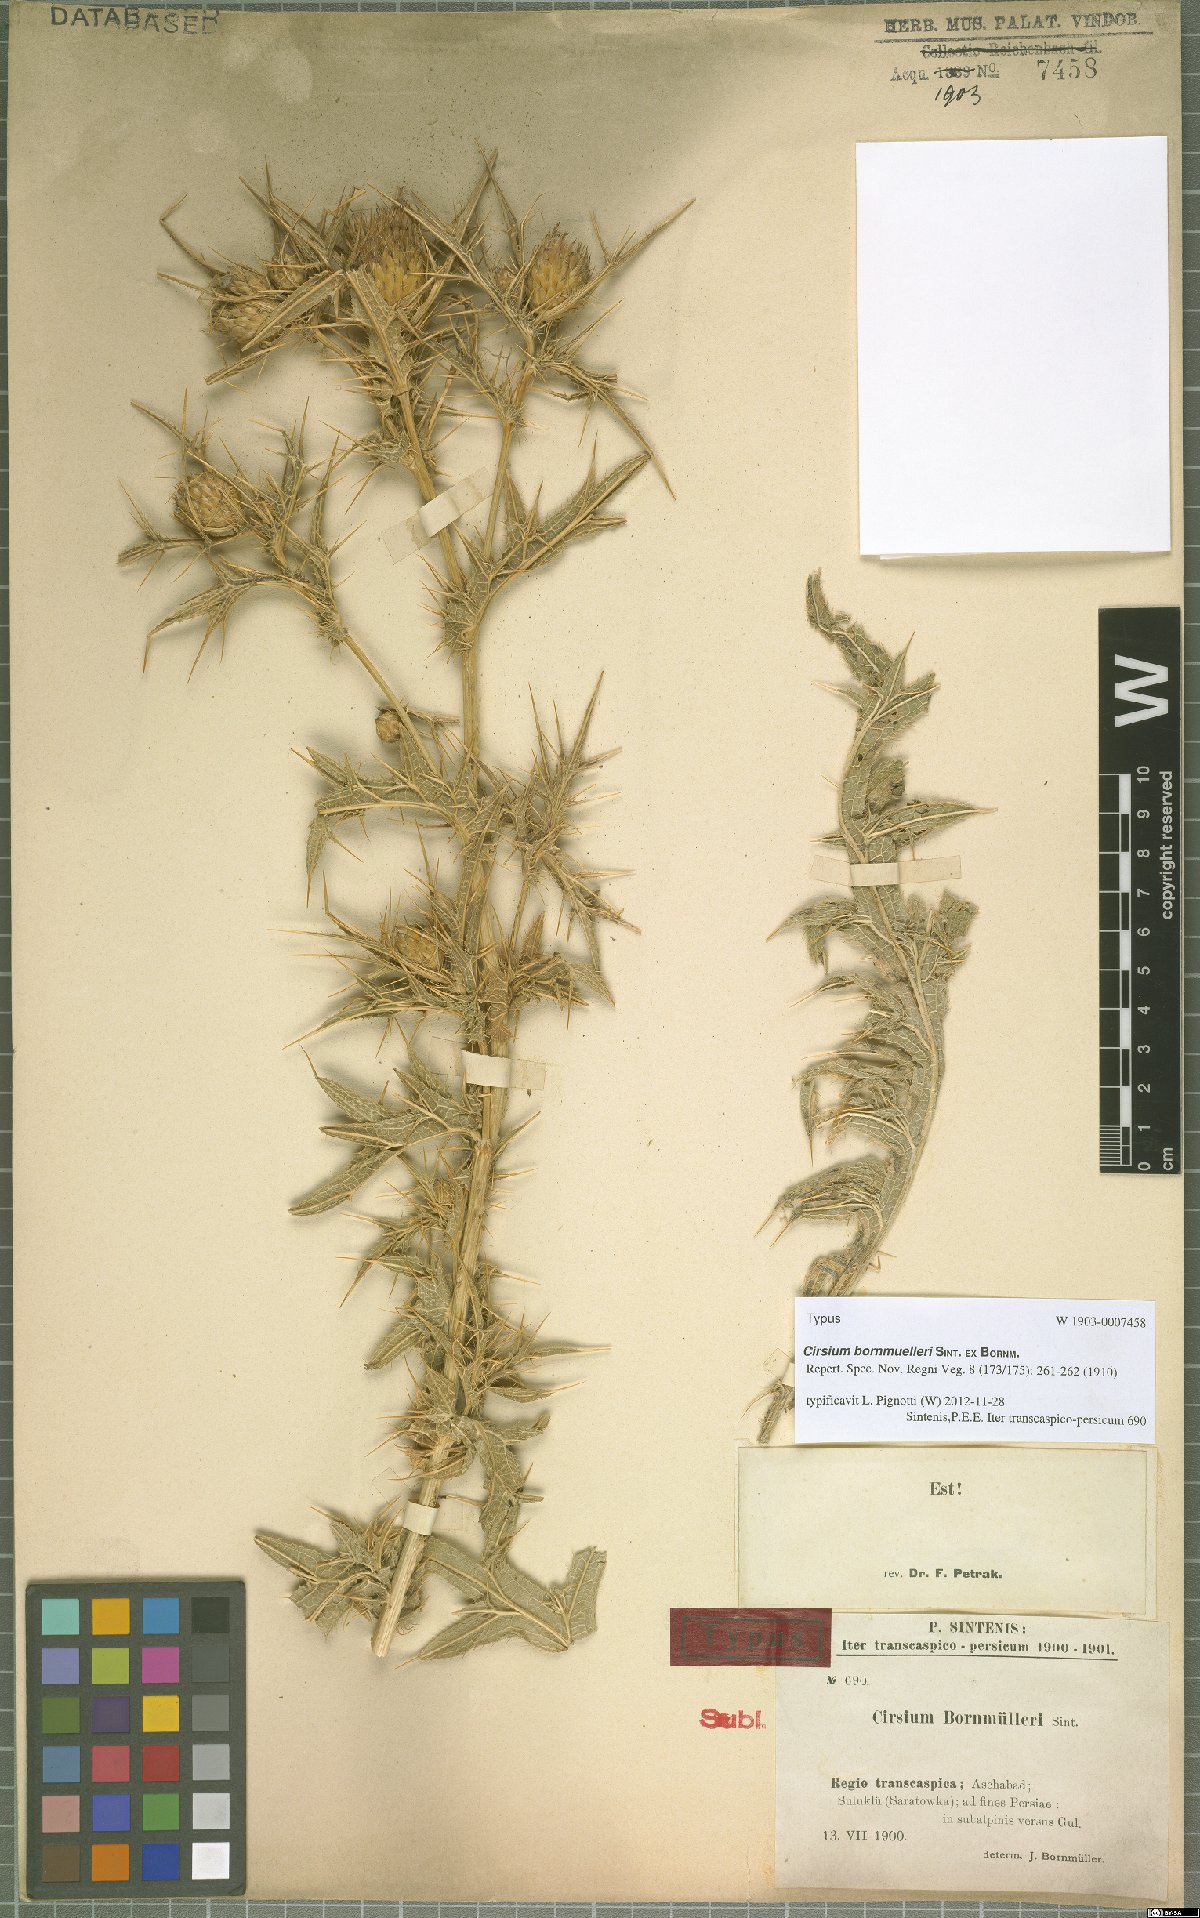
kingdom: Plantae
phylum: Tracheophyta
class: Magnoliopsida
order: Asterales
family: Asteraceae
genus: Lophiolepis
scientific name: Lophiolepis bornmuelleri
